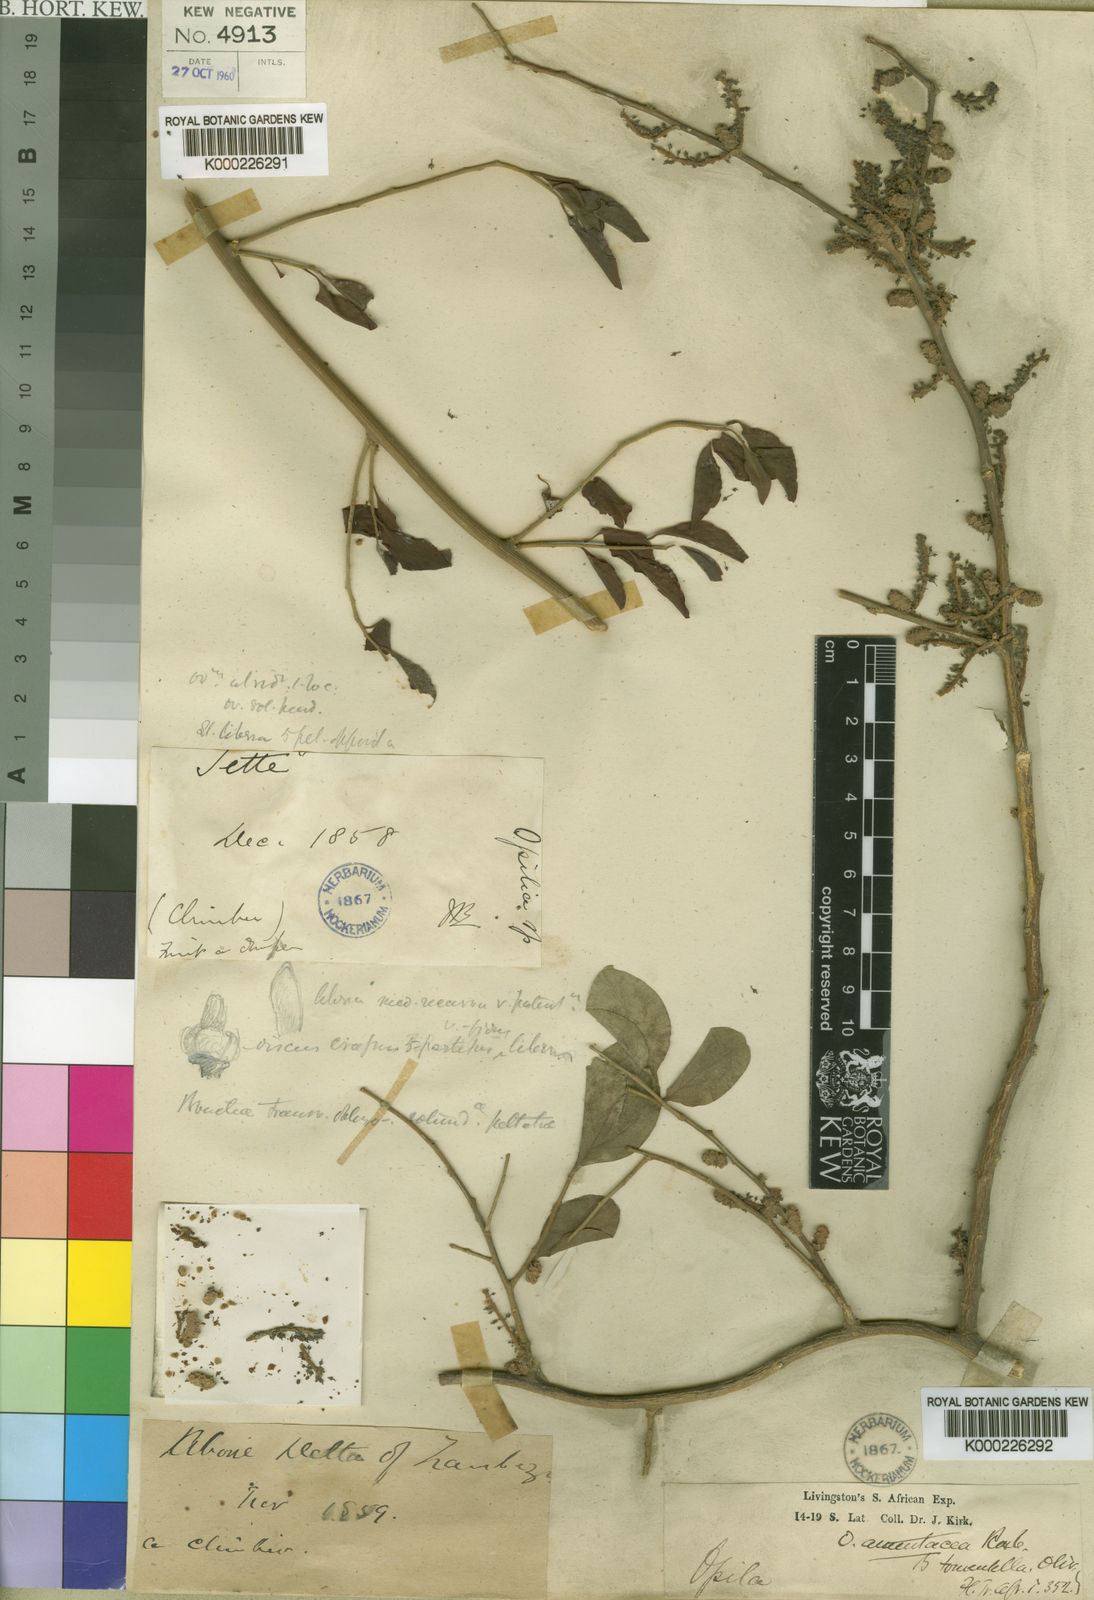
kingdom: Plantae
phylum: Tracheophyta
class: Magnoliopsida
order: Santalales
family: Opiliaceae
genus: Opilia
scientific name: Opilia amentacea
